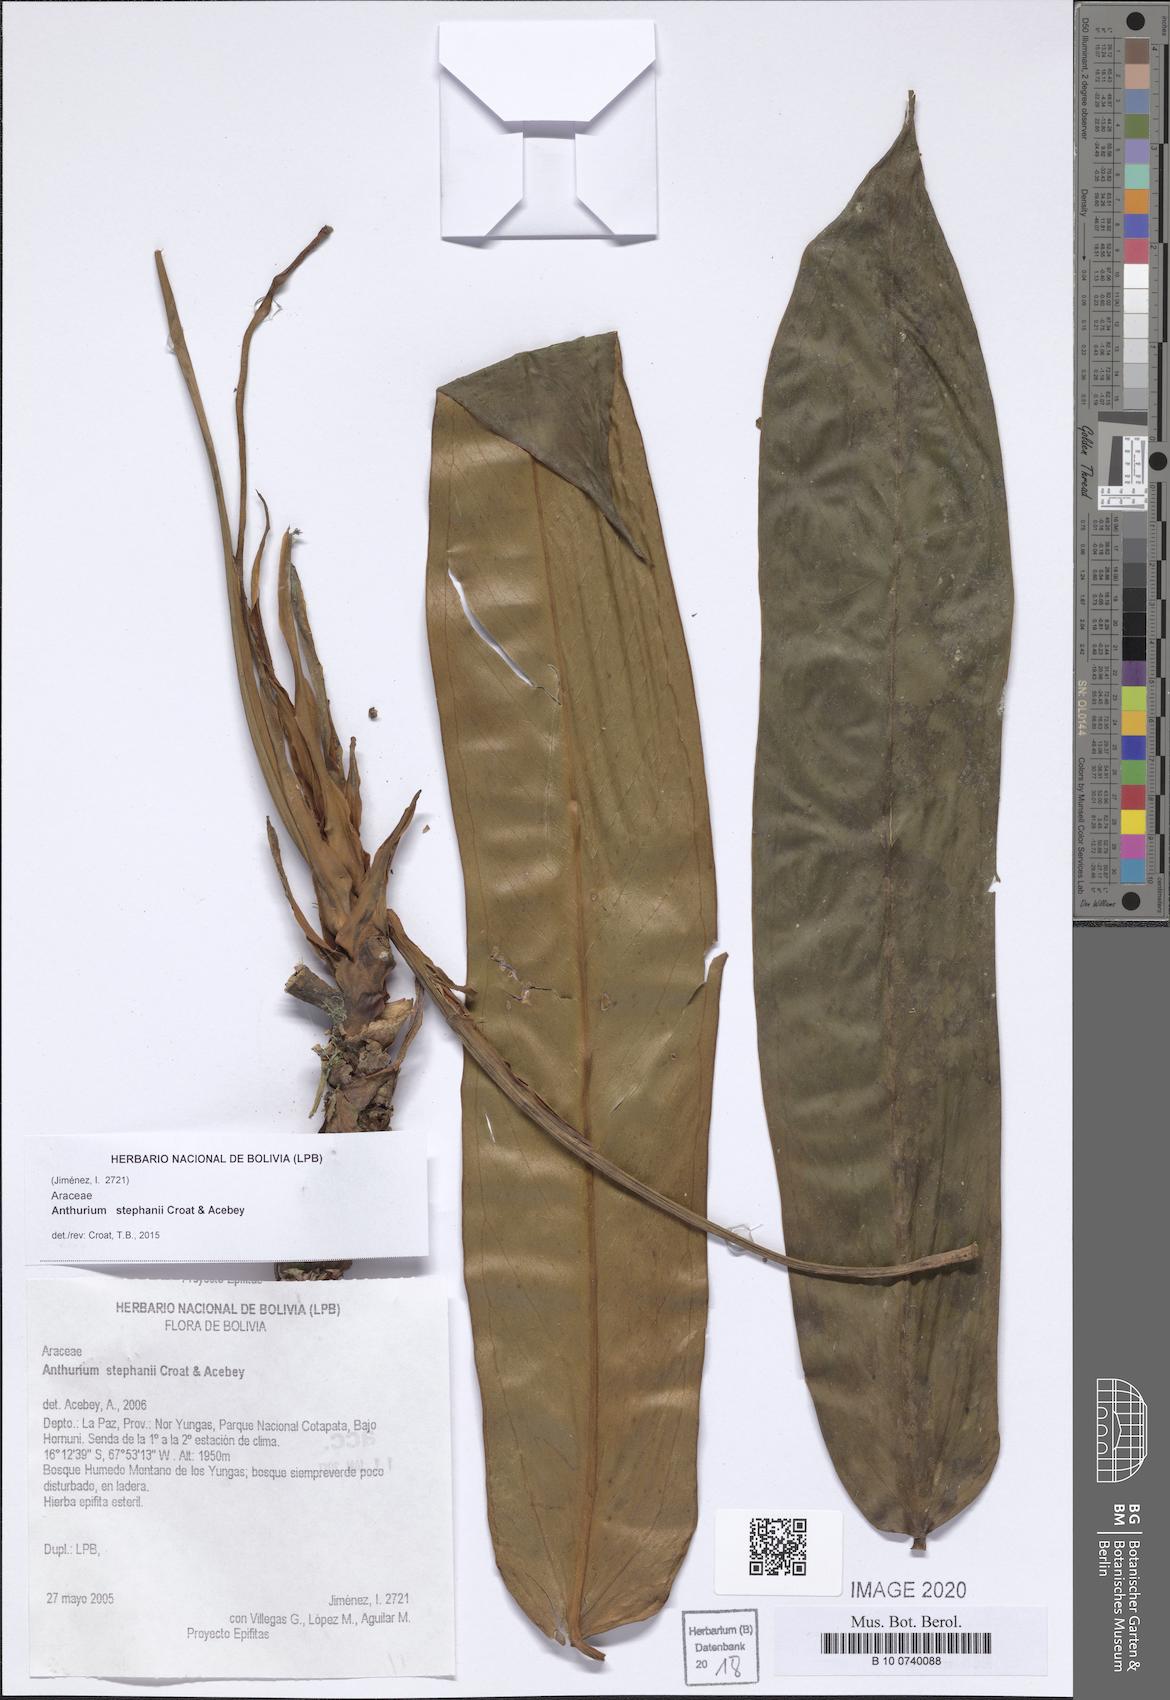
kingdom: Plantae
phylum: Tracheophyta
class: Liliopsida
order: Alismatales
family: Araceae
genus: Anthurium
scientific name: Anthurium stephanii
